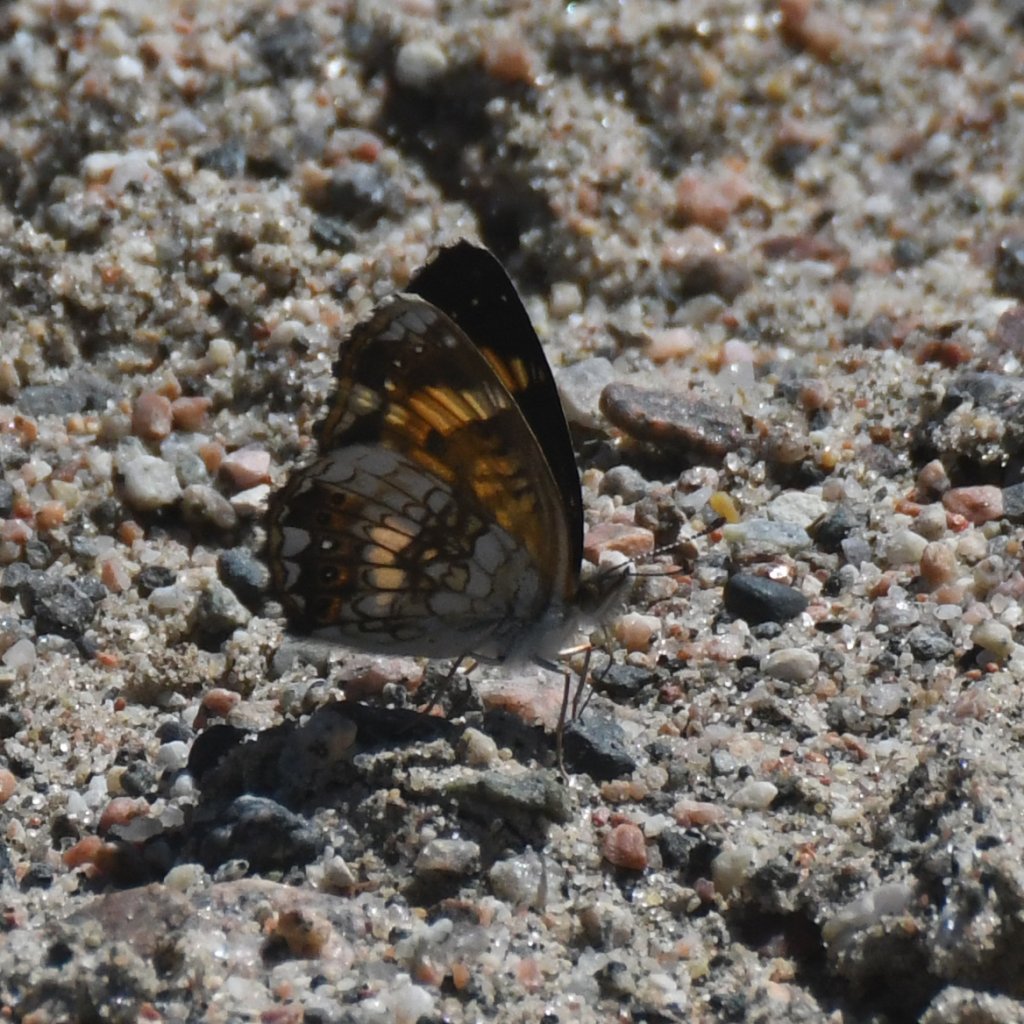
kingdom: Animalia
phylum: Arthropoda
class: Insecta
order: Lepidoptera
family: Nymphalidae
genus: Chlosyne
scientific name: Chlosyne nycteis
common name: Silvery Checkerspot
